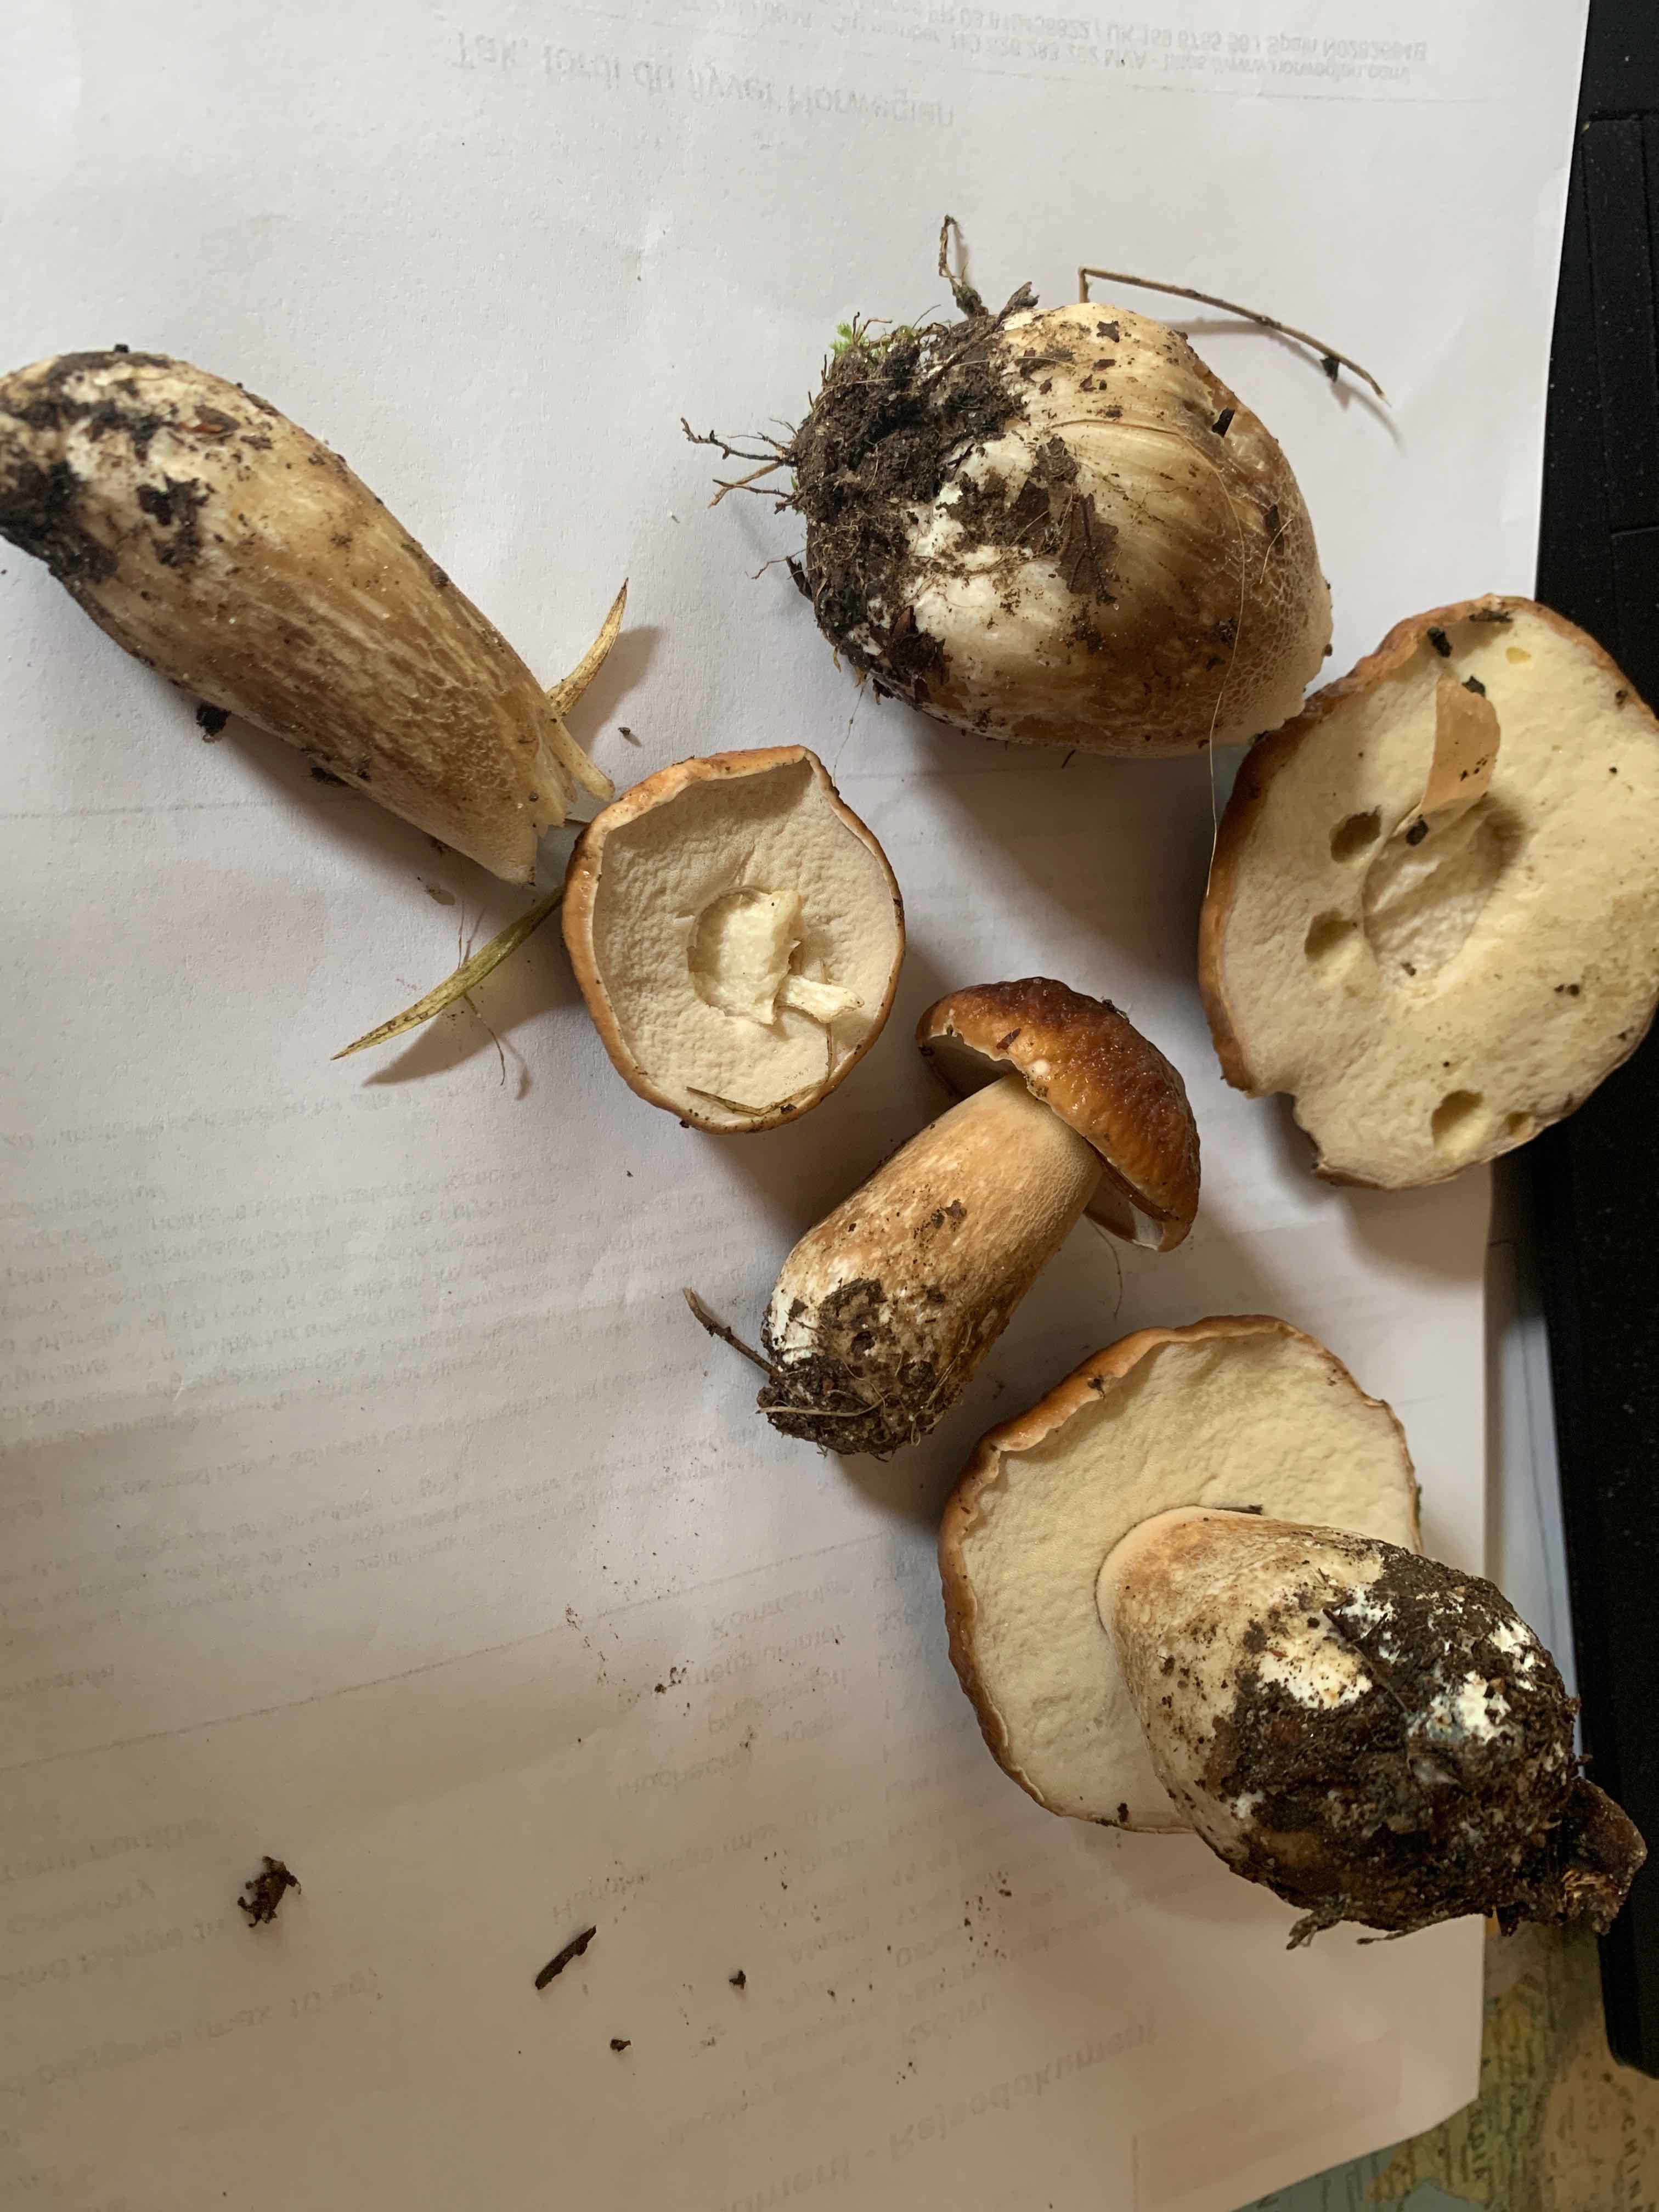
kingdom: Fungi
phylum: Basidiomycota
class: Agaricomycetes
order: Boletales
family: Boletaceae
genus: Boletus
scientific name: Boletus edulis
